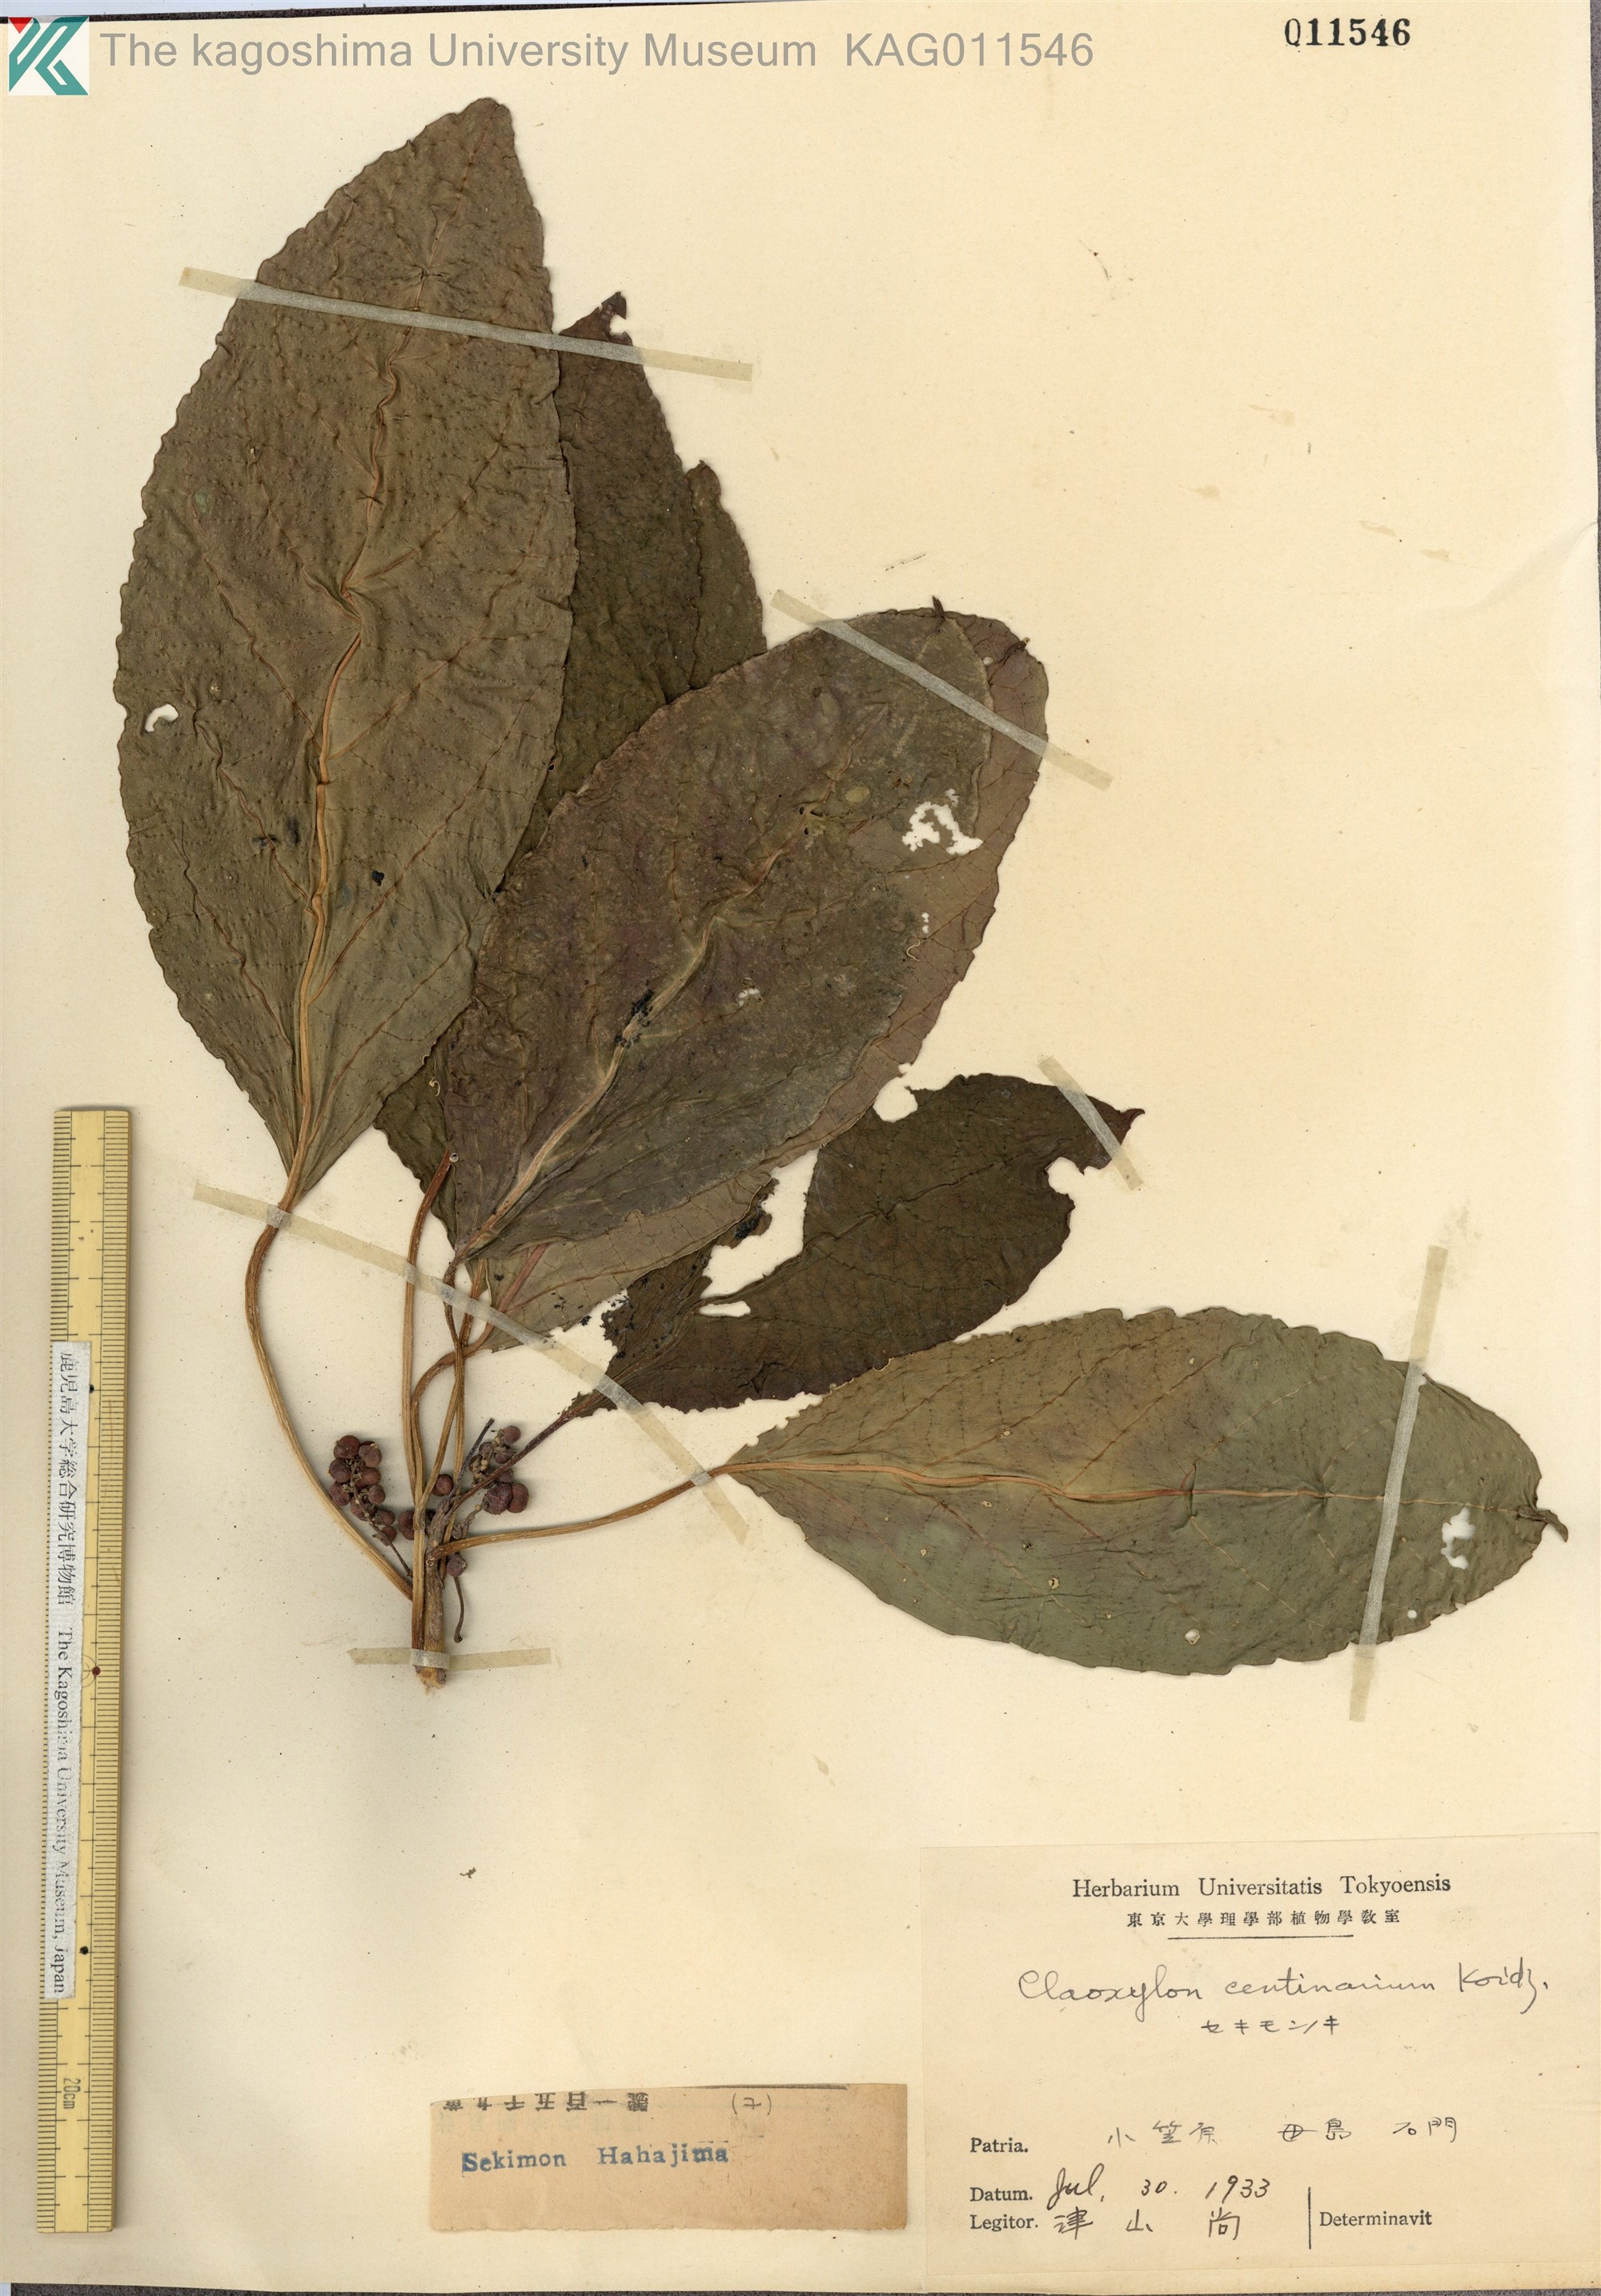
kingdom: Plantae
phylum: Tracheophyta
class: Magnoliopsida
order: Malpighiales
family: Euphorbiaceae
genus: Claoxylon
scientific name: Claoxylon centenarium
